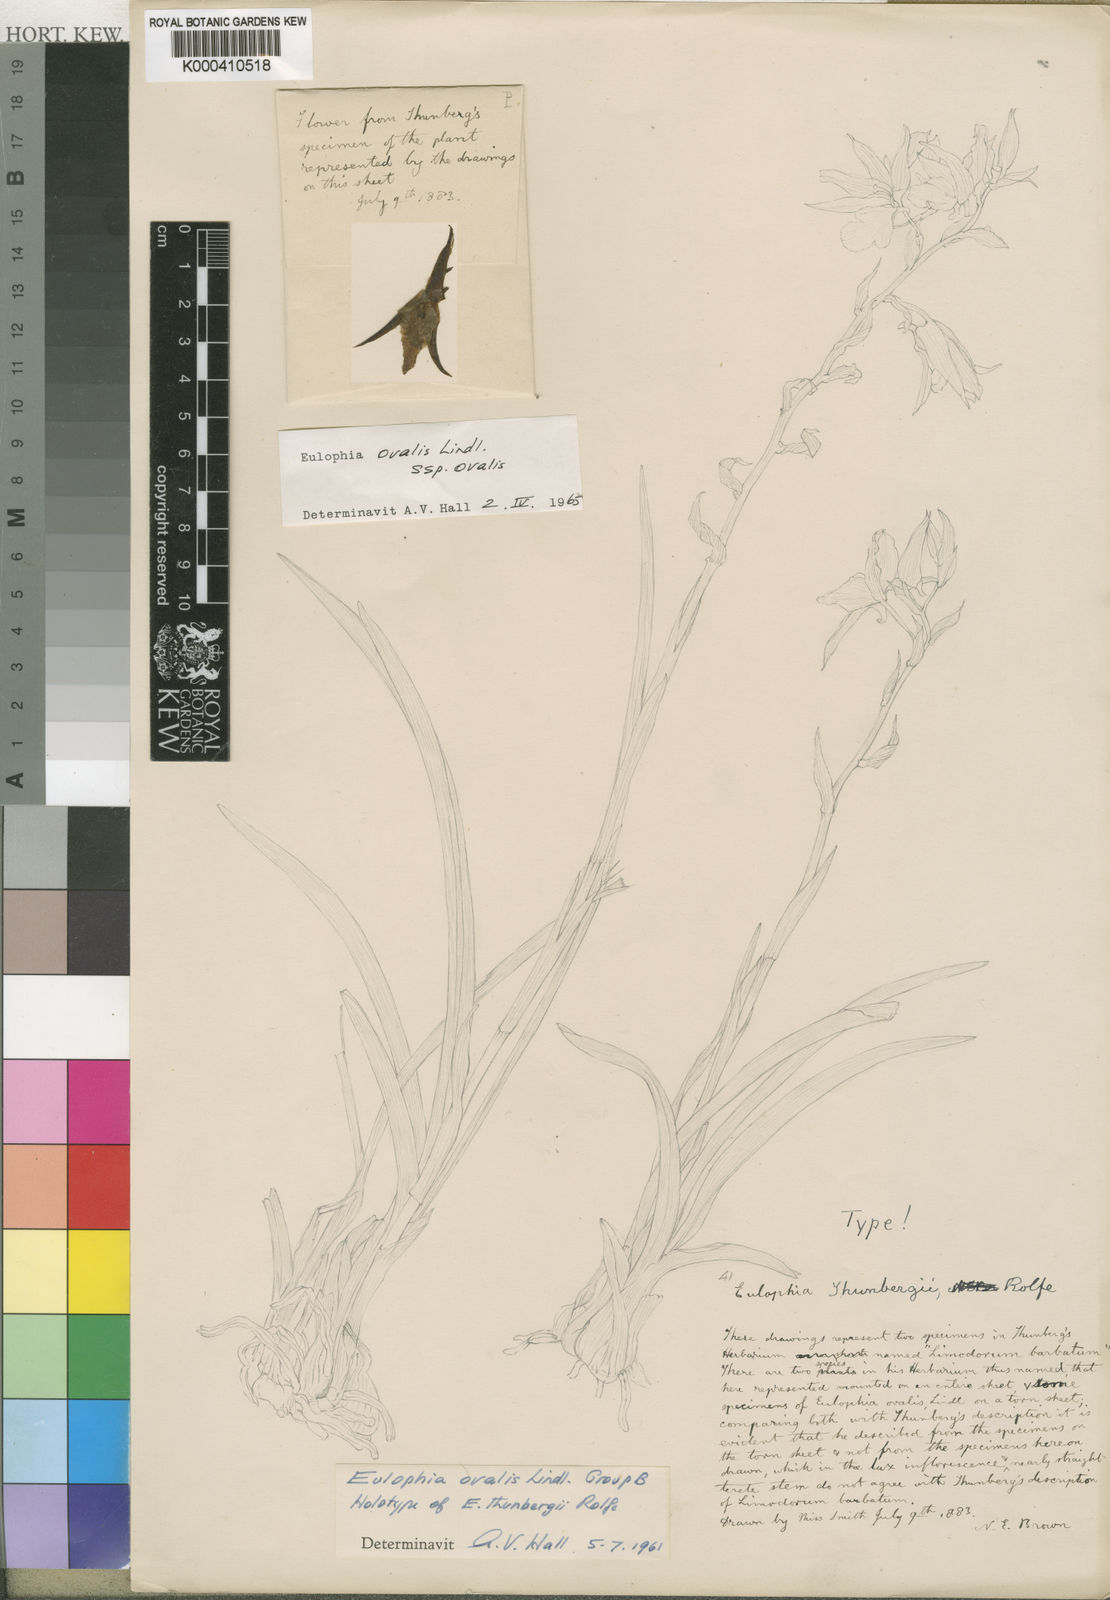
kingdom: Plantae
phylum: Tracheophyta
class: Liliopsida
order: Asparagales
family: Orchidaceae
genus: Eulophia
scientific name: Eulophia ovalis
